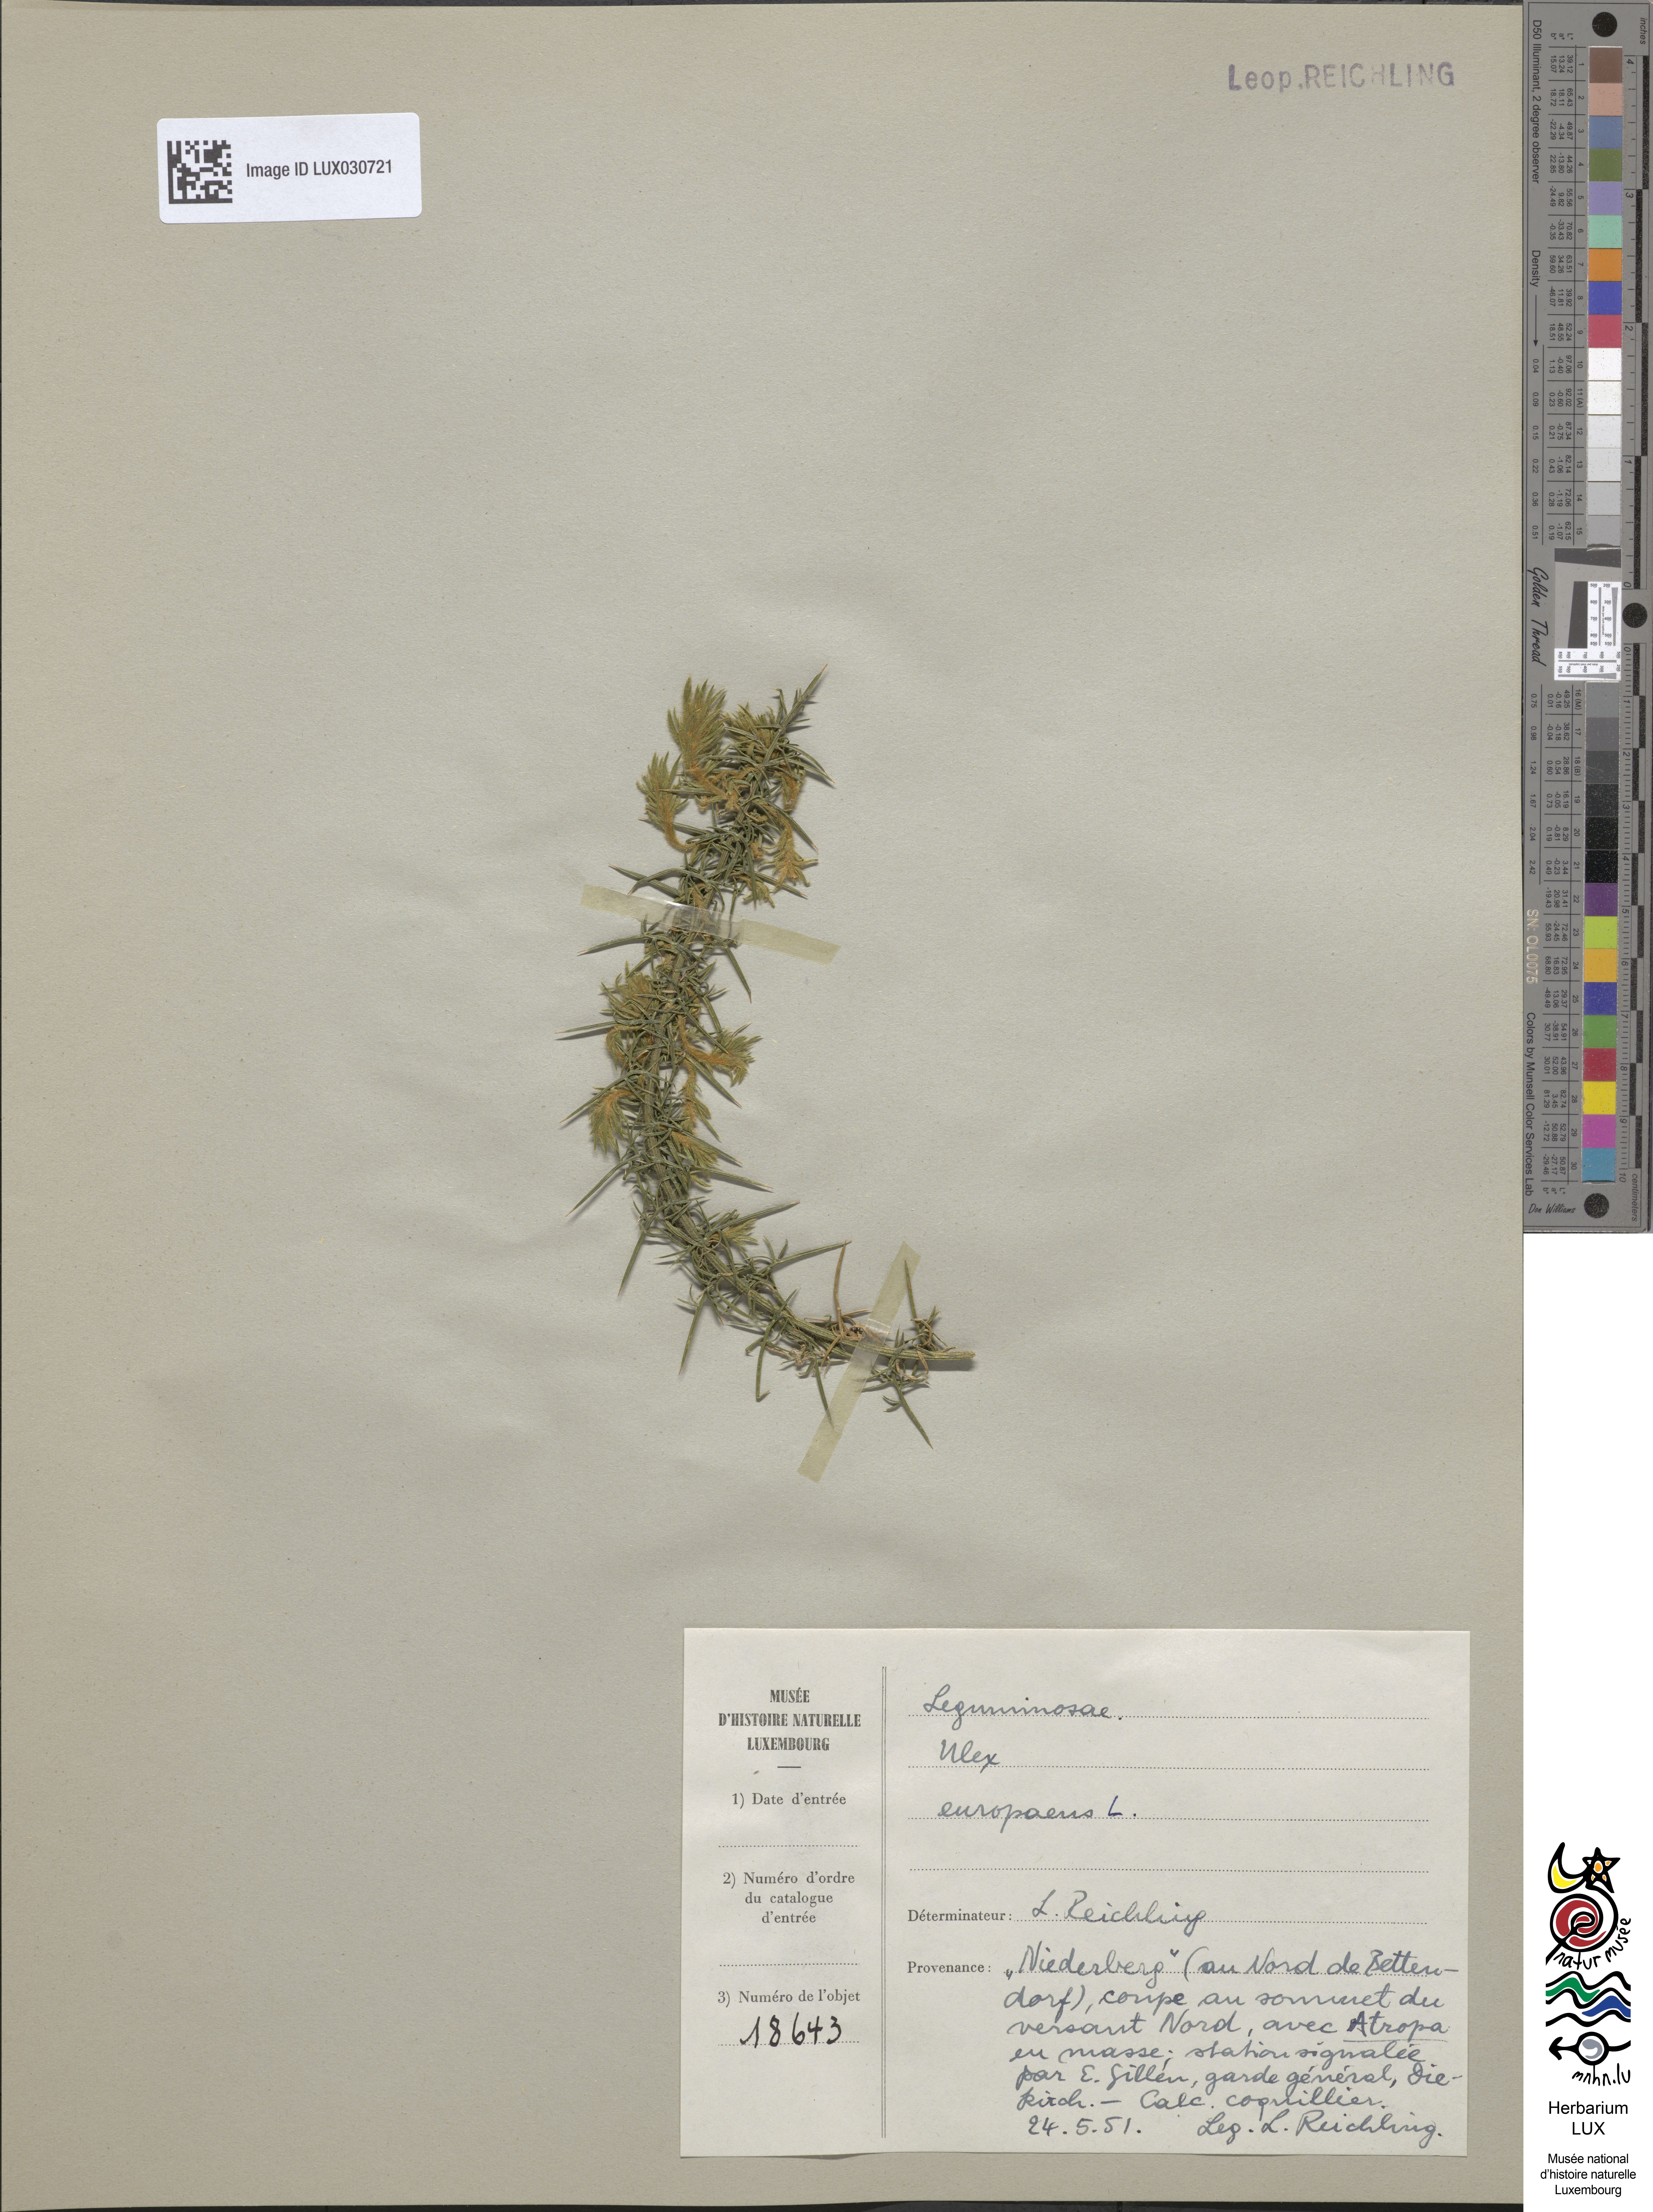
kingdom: Plantae
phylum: Tracheophyta
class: Magnoliopsida
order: Fabales
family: Fabaceae
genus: Ulex
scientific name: Ulex europaeus
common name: Common gorse
